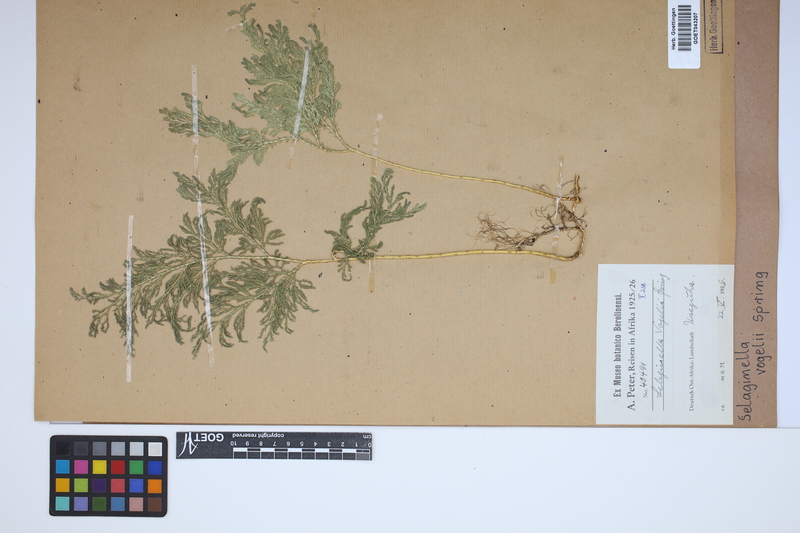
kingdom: Plantae
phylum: Tracheophyta
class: Lycopodiopsida
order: Selaginellales
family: Selaginellaceae
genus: Selaginella
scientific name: Selaginella vogelii
